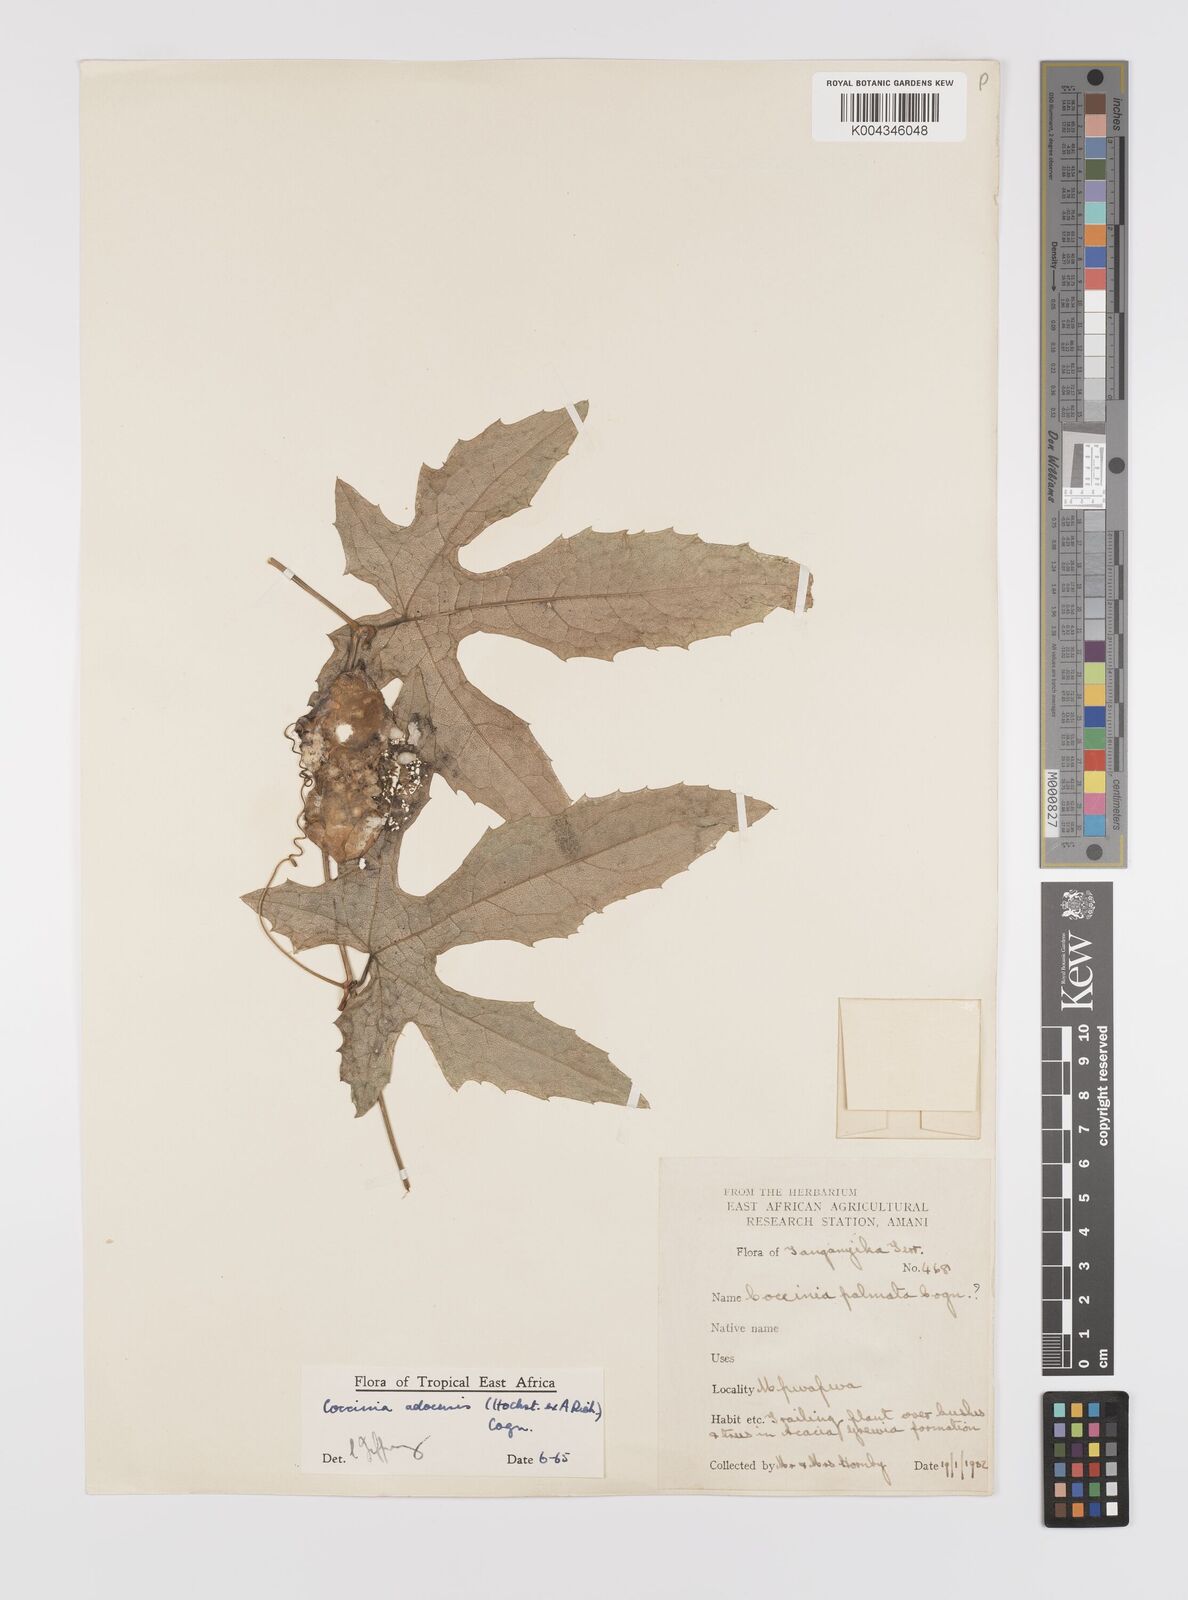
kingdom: Plantae
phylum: Tracheophyta
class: Magnoliopsida
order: Cucurbitales
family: Cucurbitaceae
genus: Coccinia
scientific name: Coccinia adoensis
